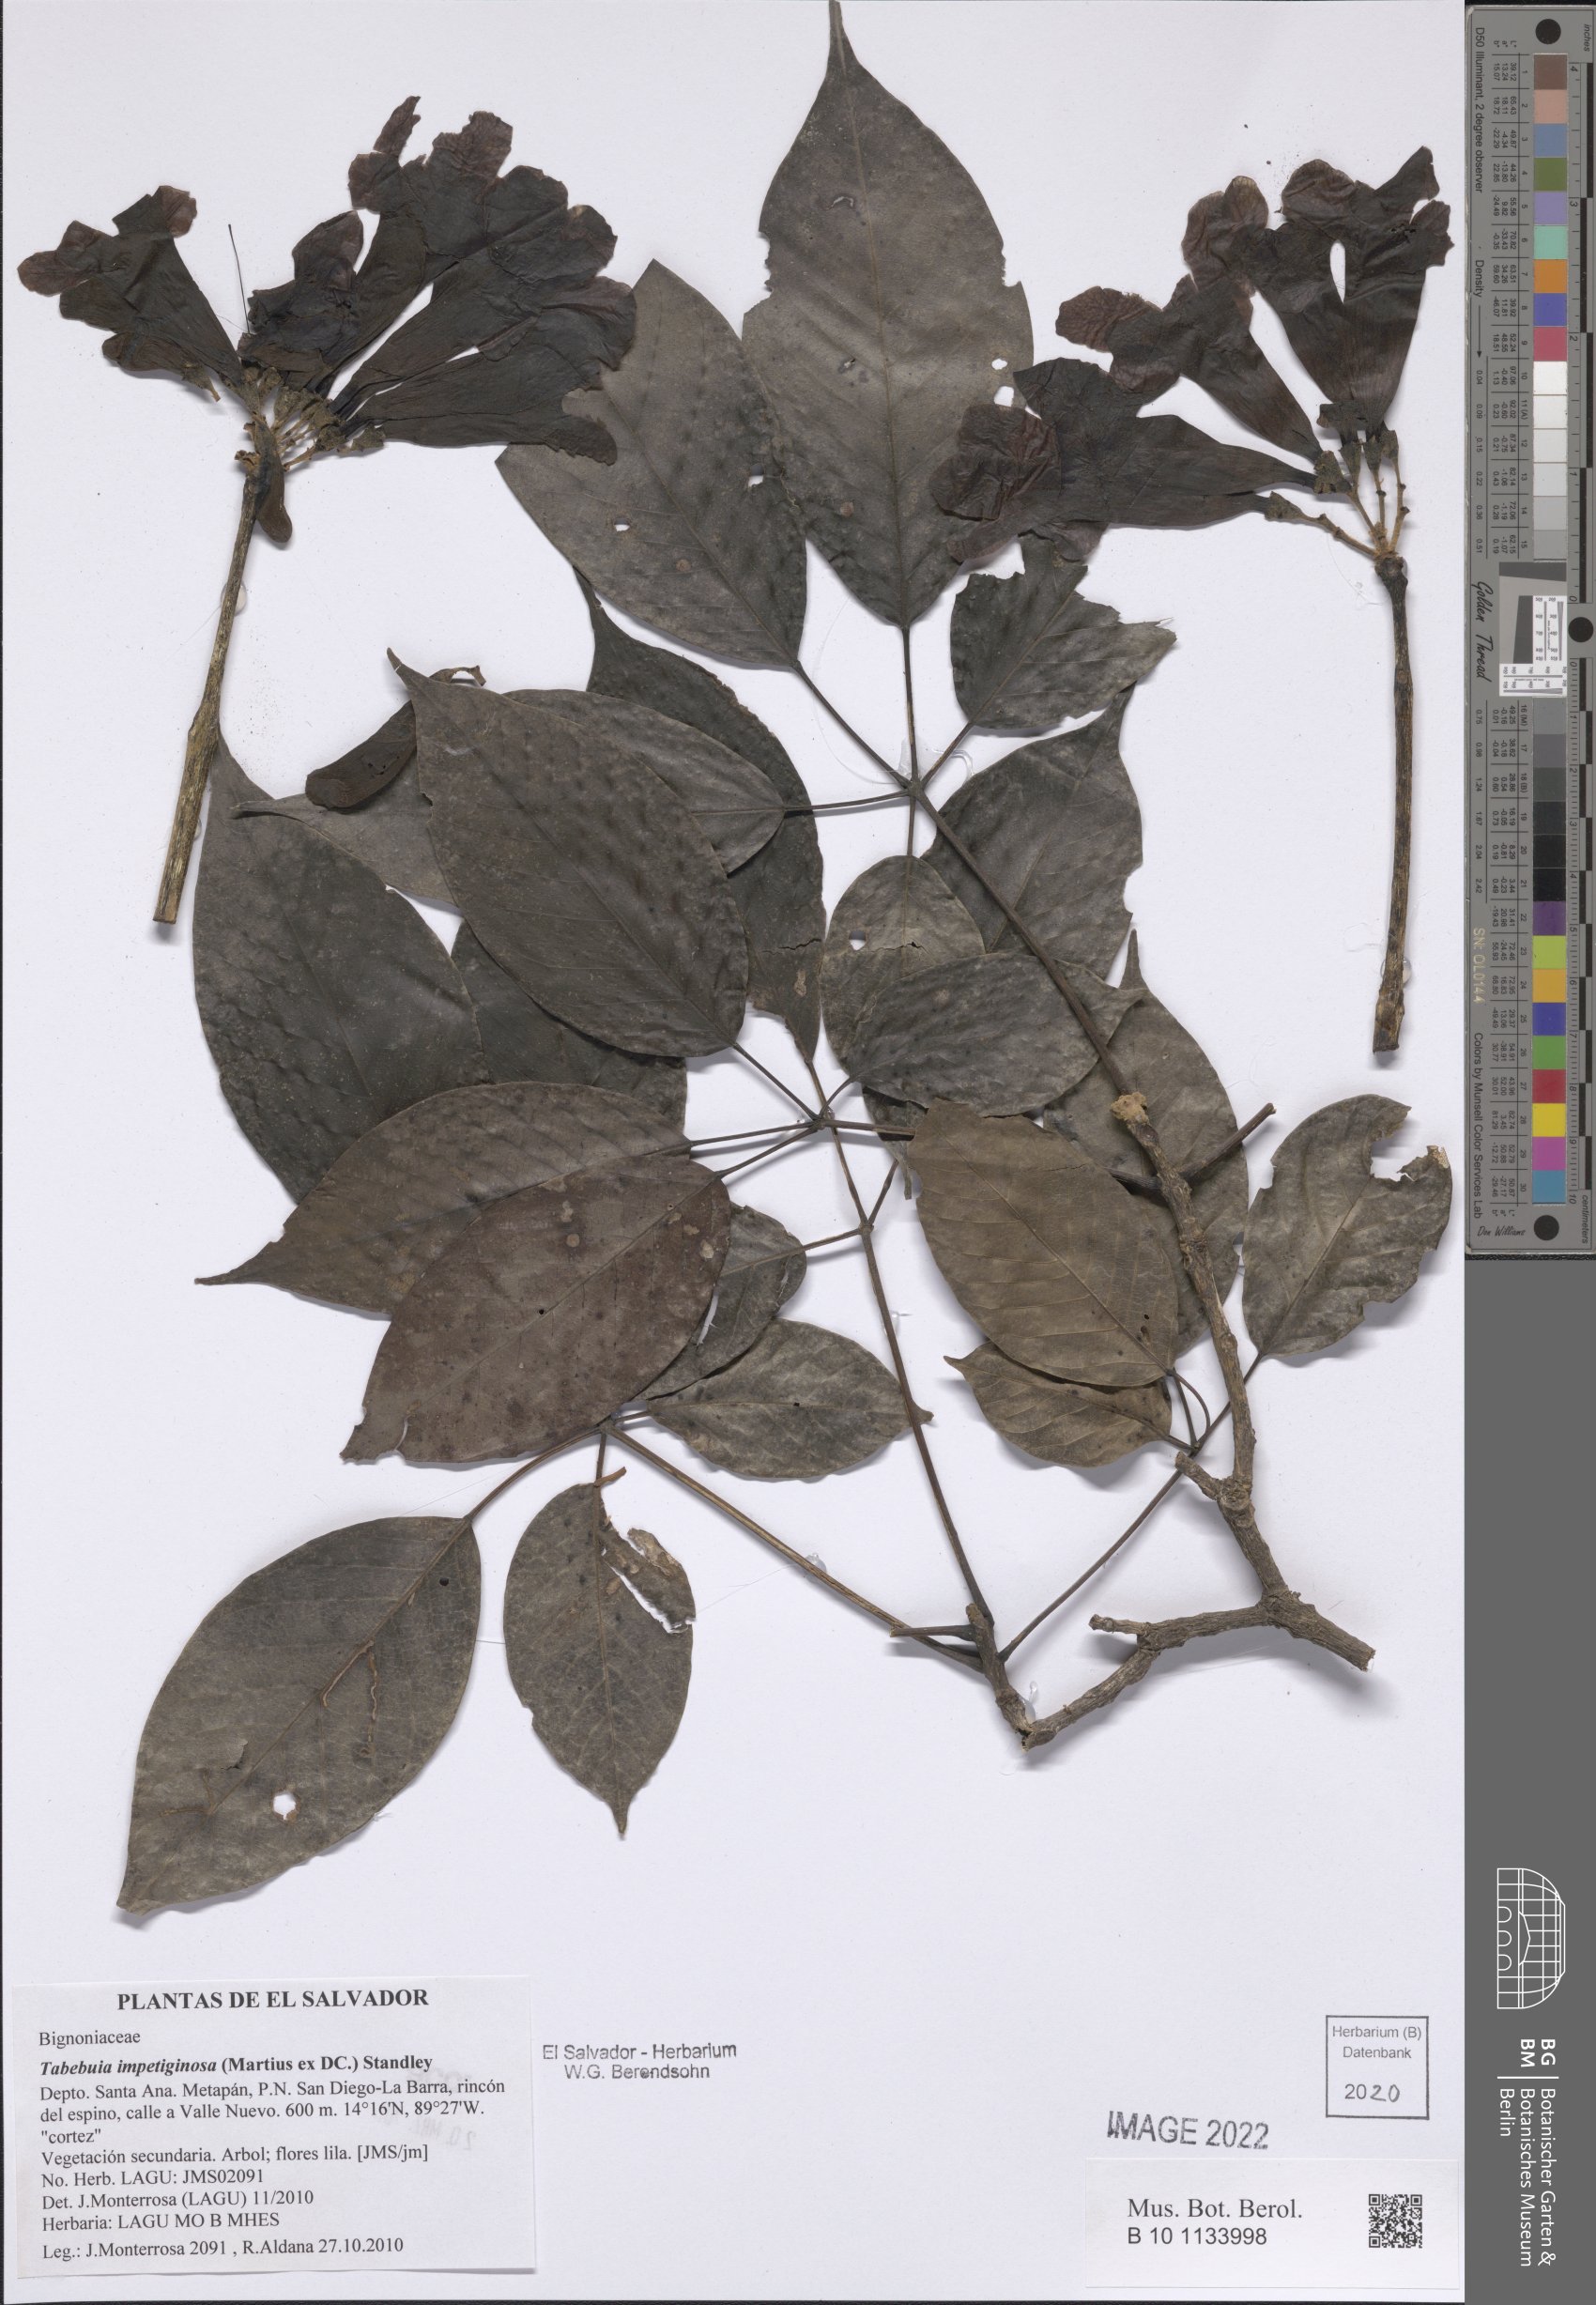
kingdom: Plantae
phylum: Tracheophyta
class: Magnoliopsida
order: Lamiales
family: Bignoniaceae
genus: Handroanthus
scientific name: Handroanthus impetiginosum
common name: Pink trumpet tree
